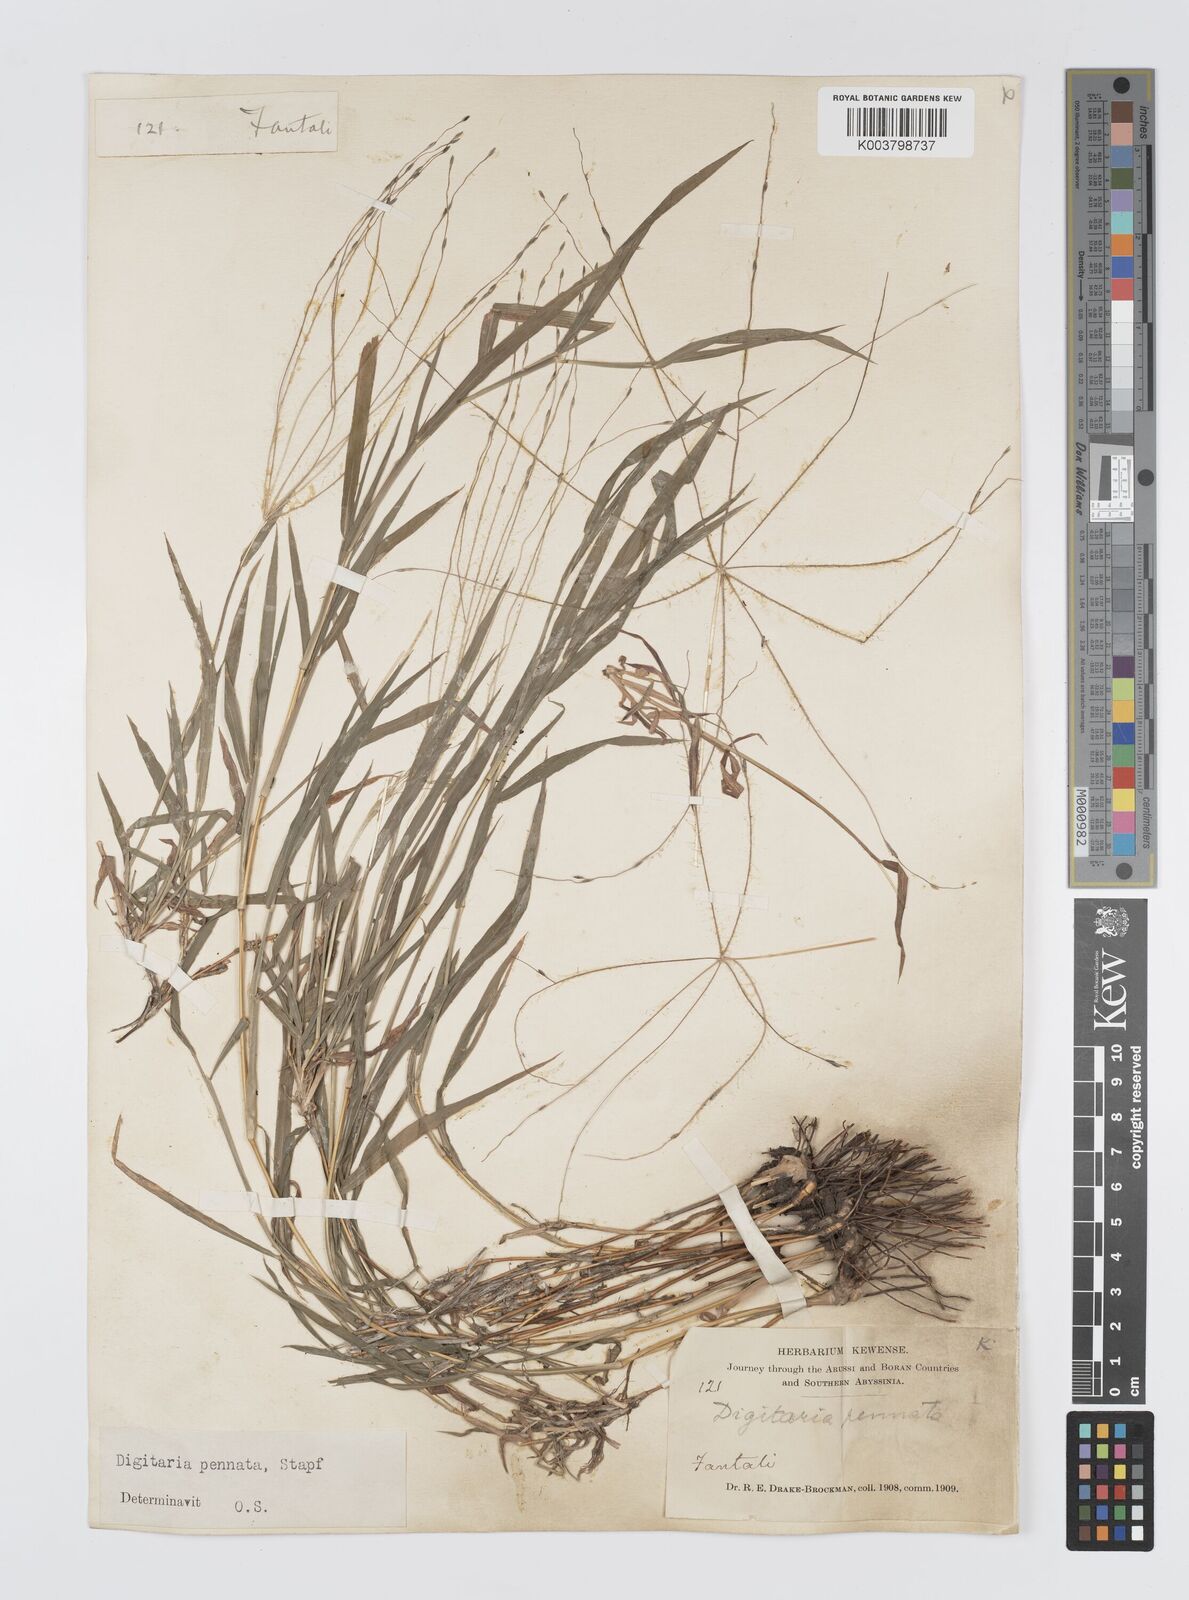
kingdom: Plantae
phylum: Tracheophyta
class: Liliopsida
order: Poales
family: Poaceae
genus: Digitaria
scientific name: Digitaria pennata
